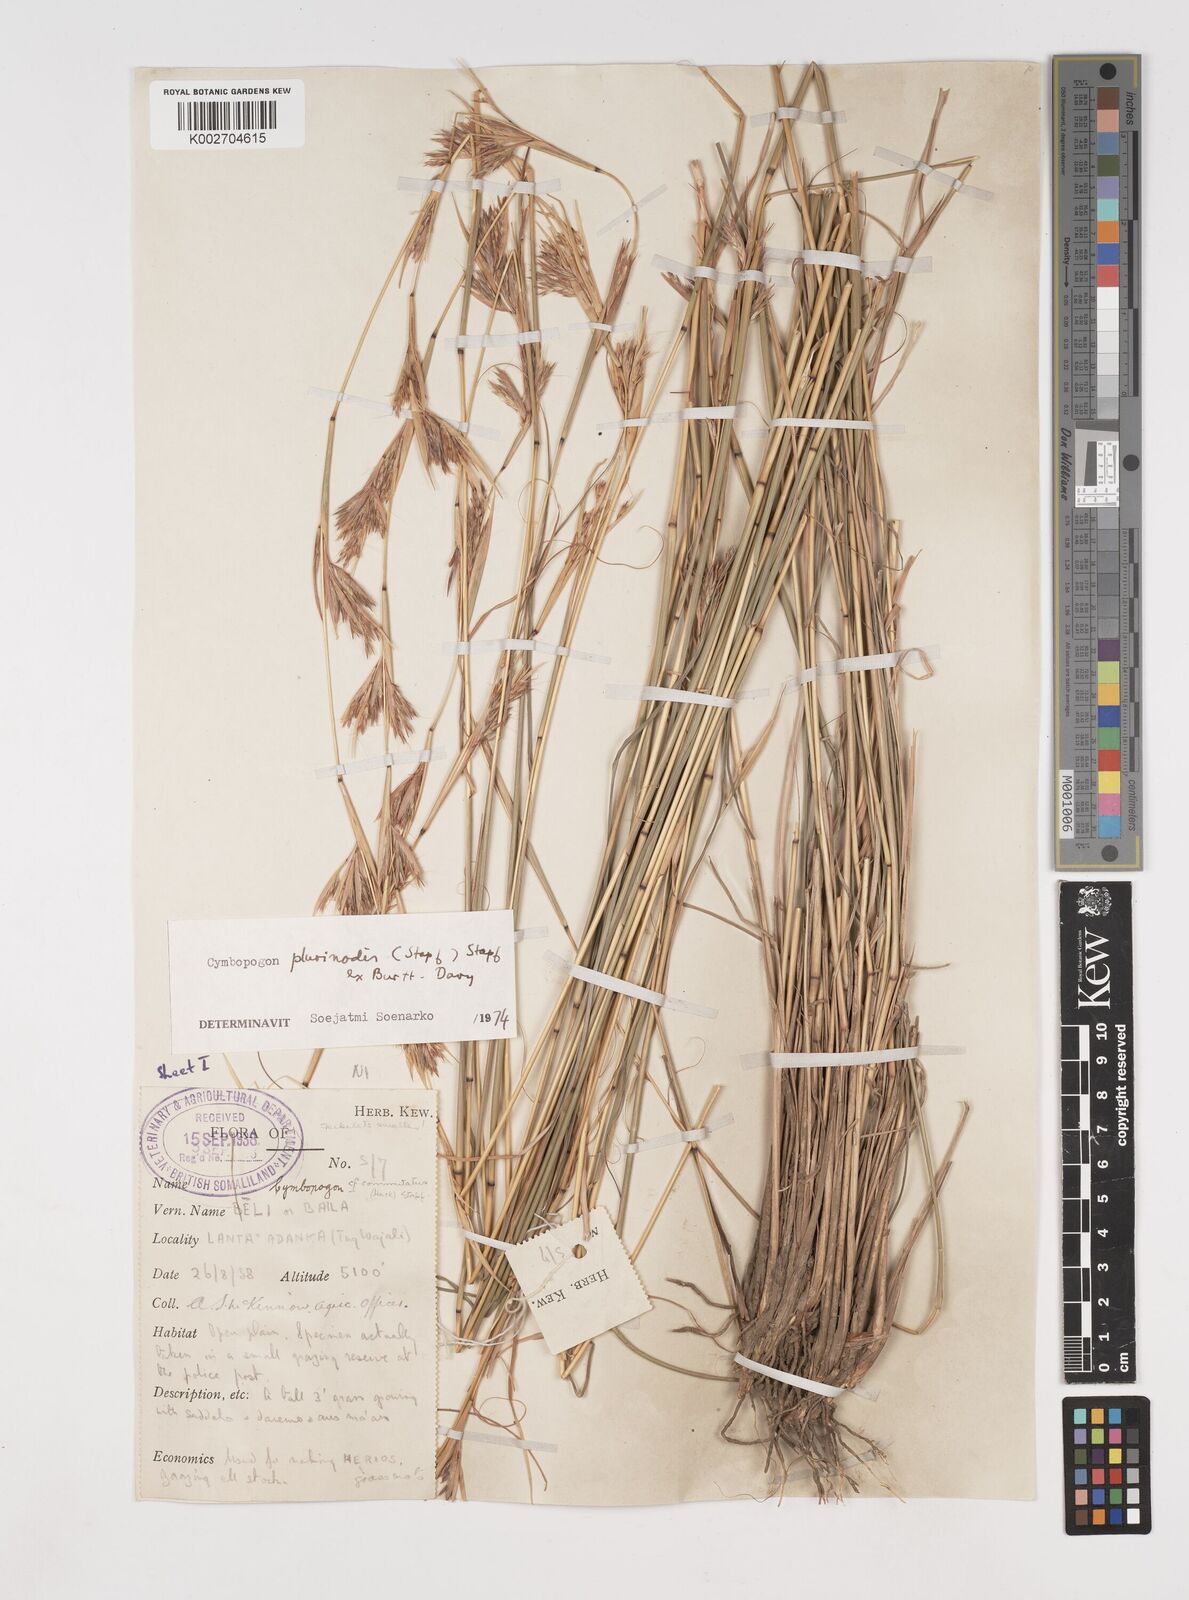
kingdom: Plantae
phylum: Tracheophyta
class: Liliopsida
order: Poales
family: Poaceae
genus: Cymbopogon
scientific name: Cymbopogon pospischilii
